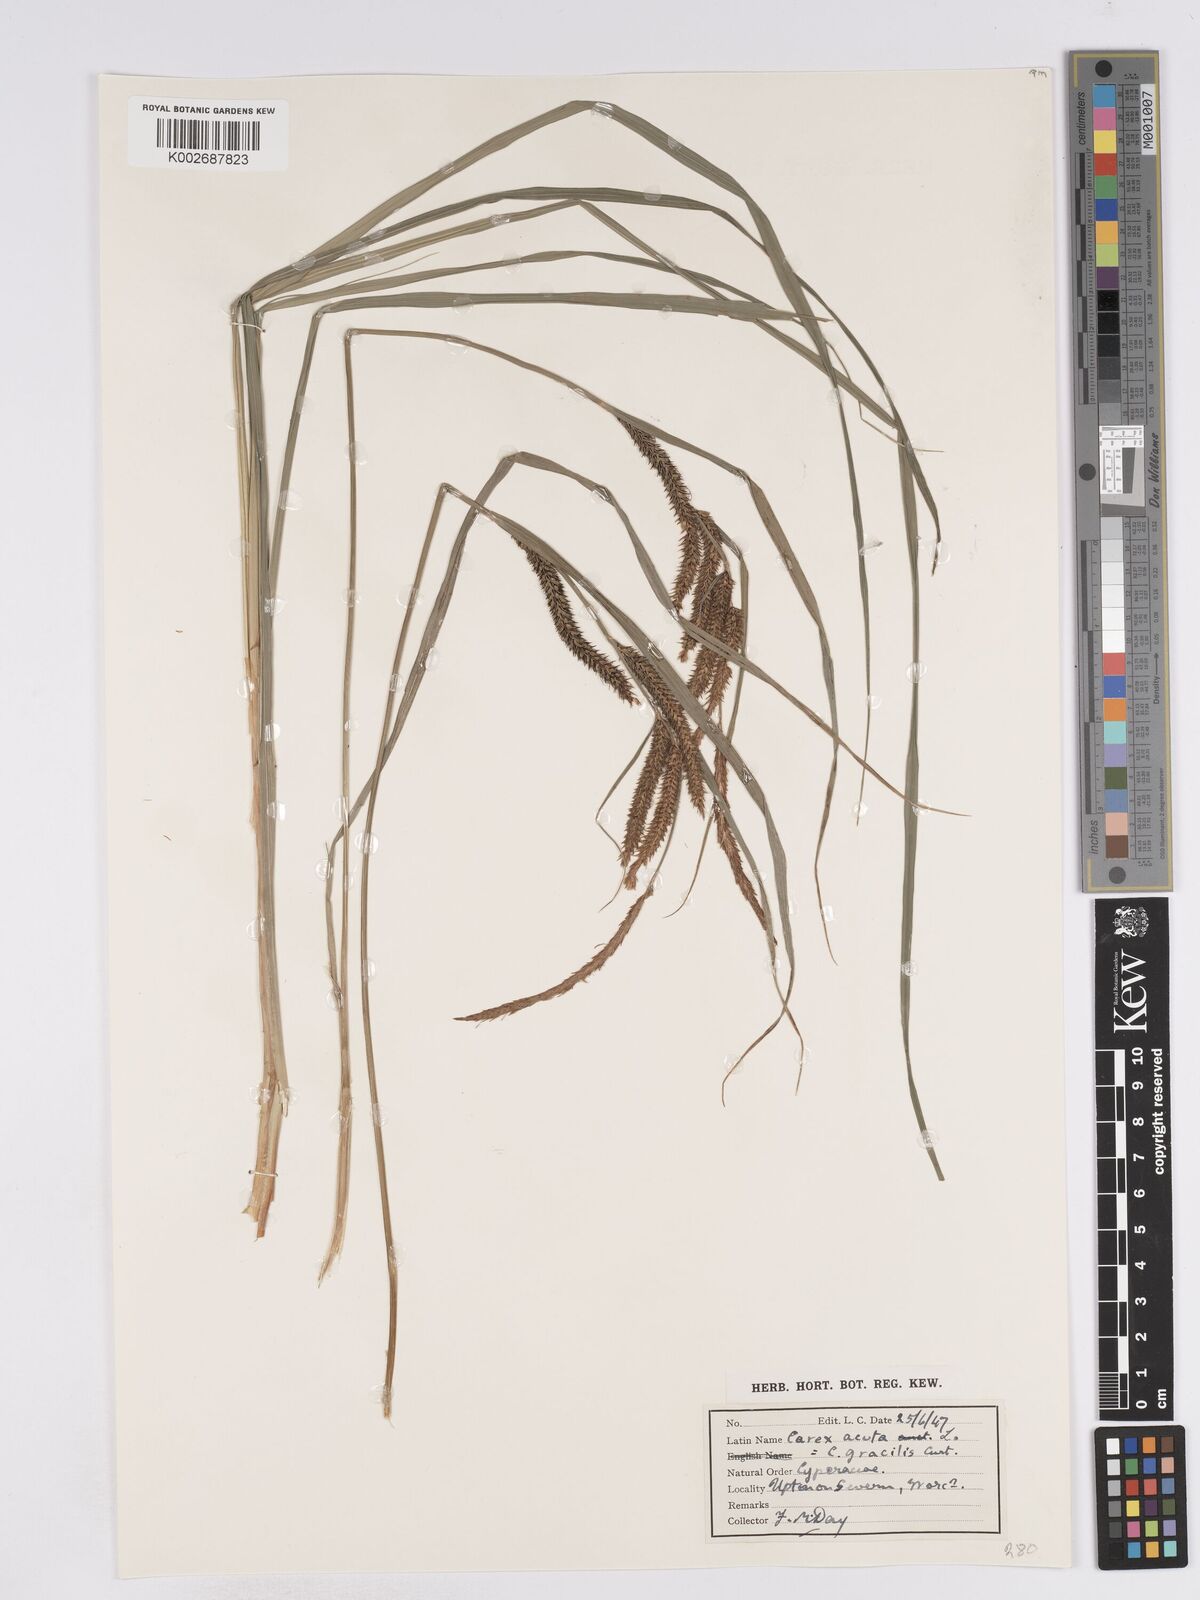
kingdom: Plantae
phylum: Tracheophyta
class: Liliopsida
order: Poales
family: Cyperaceae
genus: Carex
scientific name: Carex acuta
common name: Slender tufted-sedge
